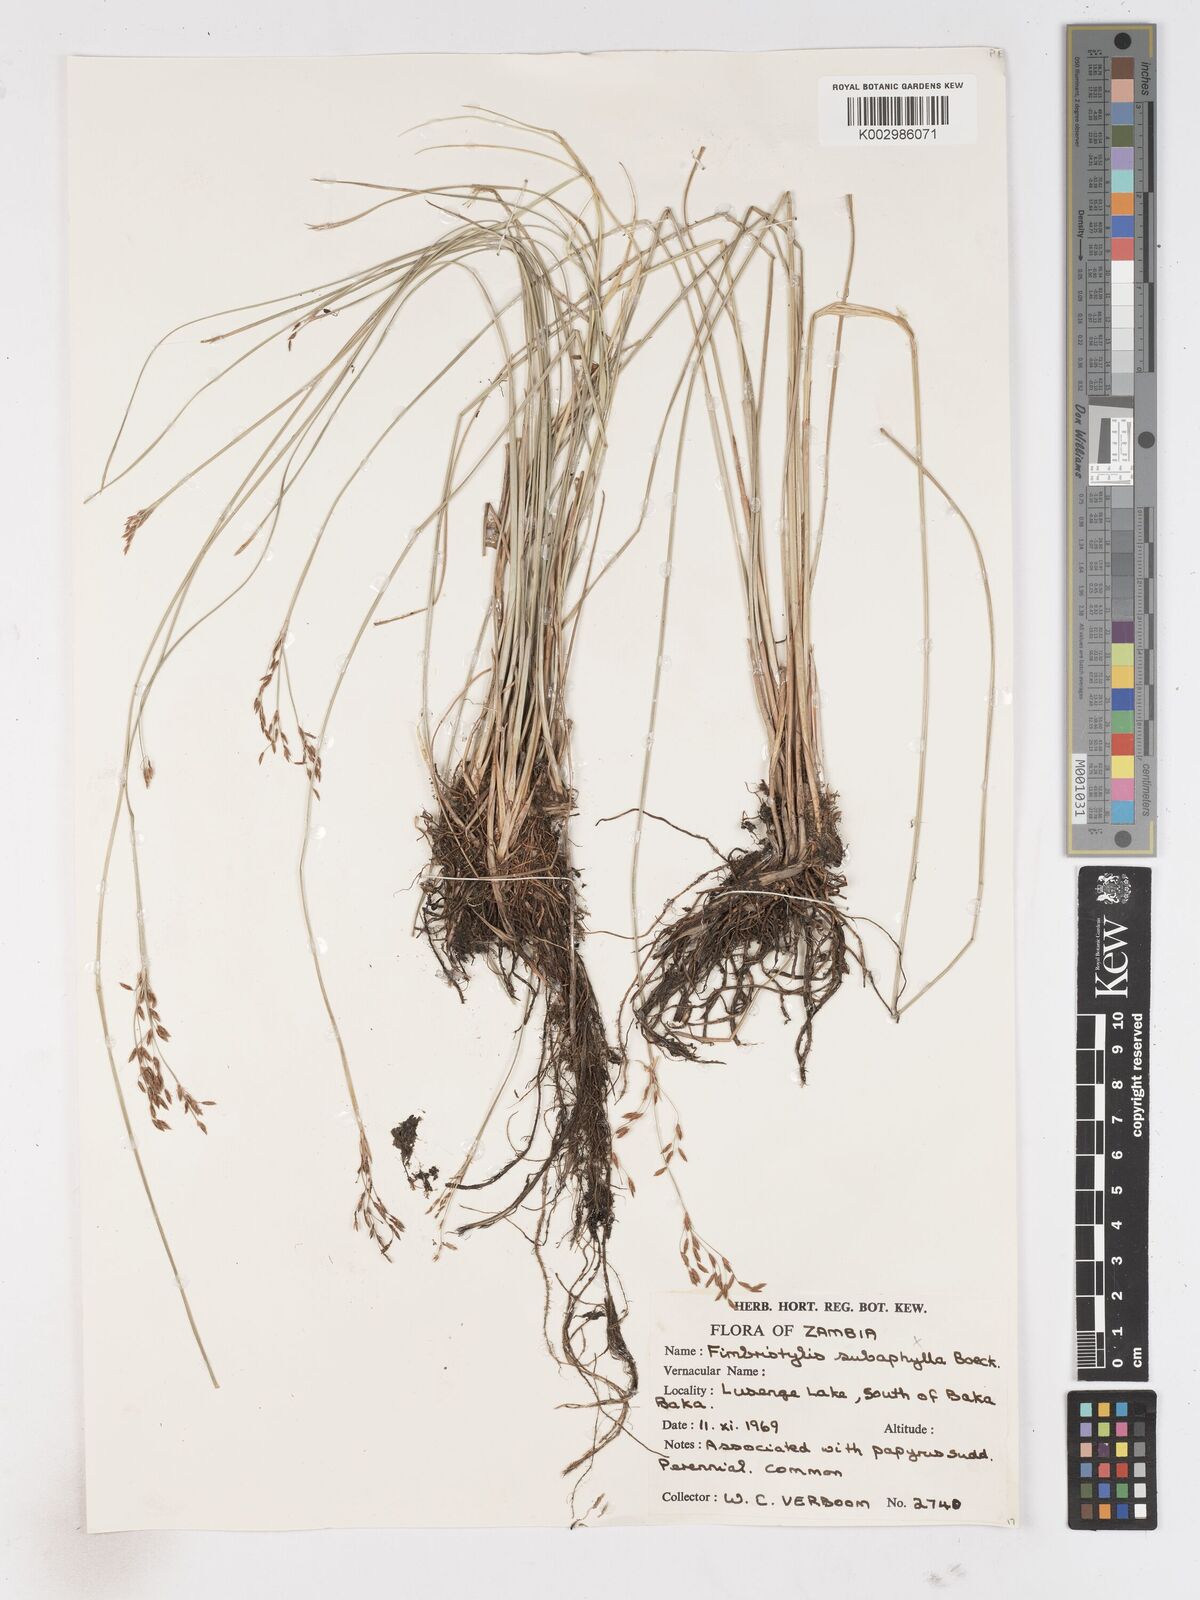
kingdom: Plantae
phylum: Tracheophyta
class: Liliopsida
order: Poales
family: Cyperaceae
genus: Fimbristylis
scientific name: Fimbristylis
